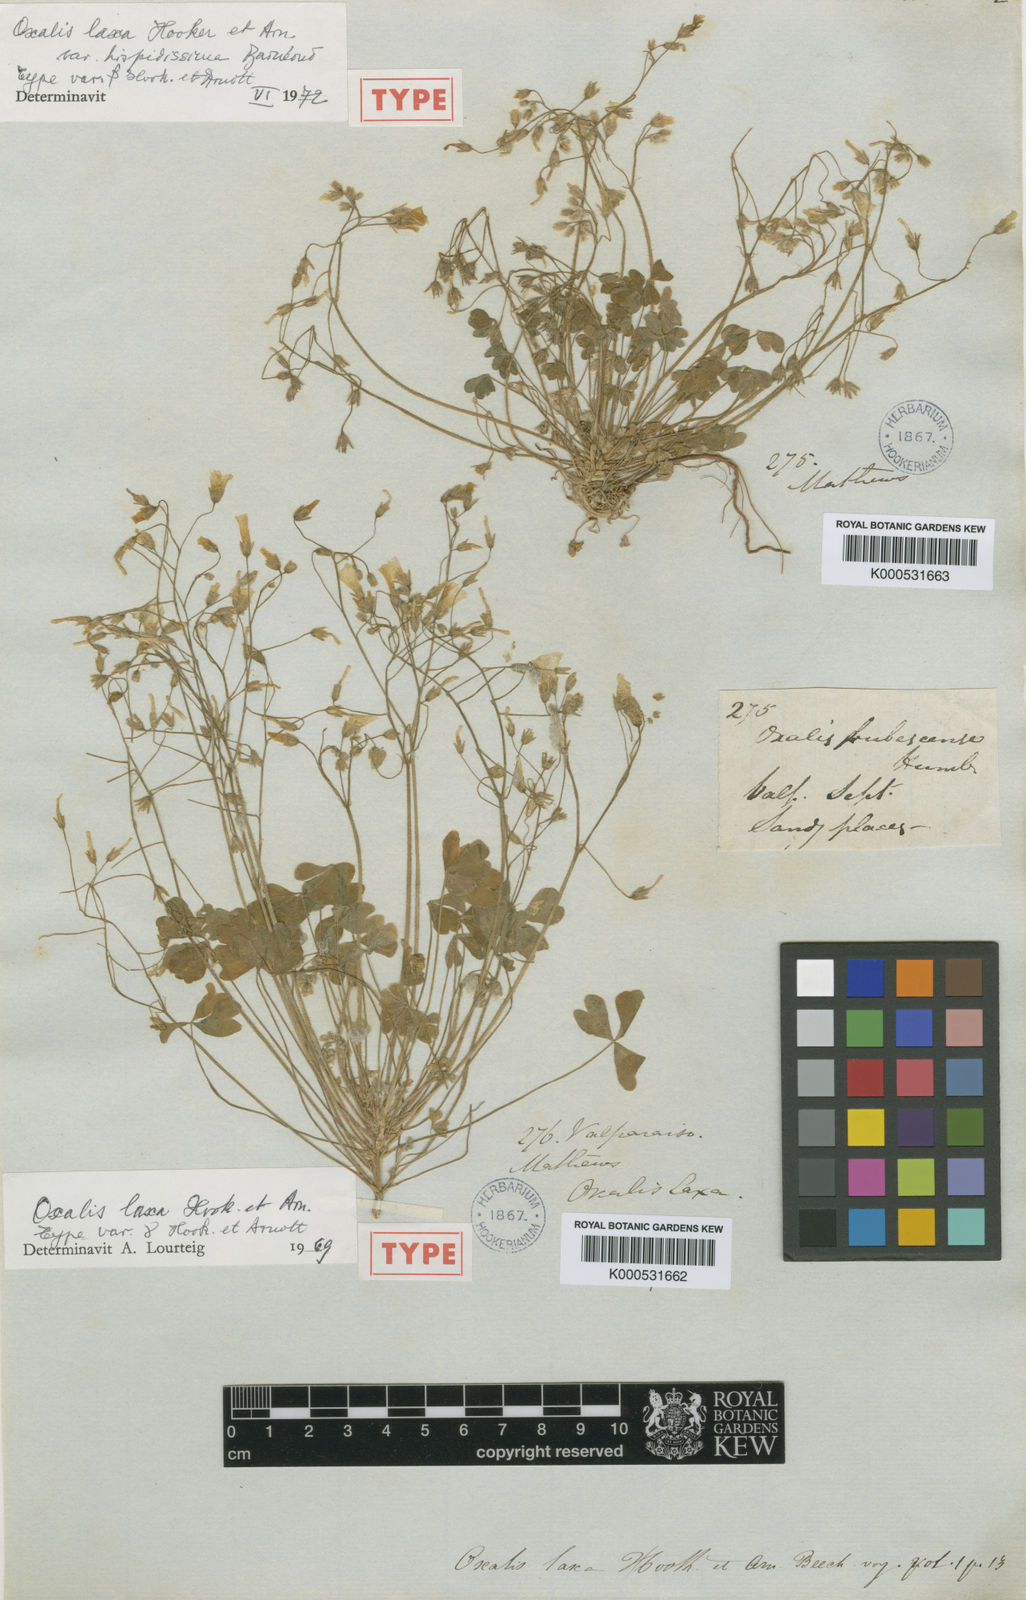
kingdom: Plantae
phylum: Tracheophyta
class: Magnoliopsida
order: Oxalidales
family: Oxalidaceae
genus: Oxalis
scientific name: Oxalis laxa
